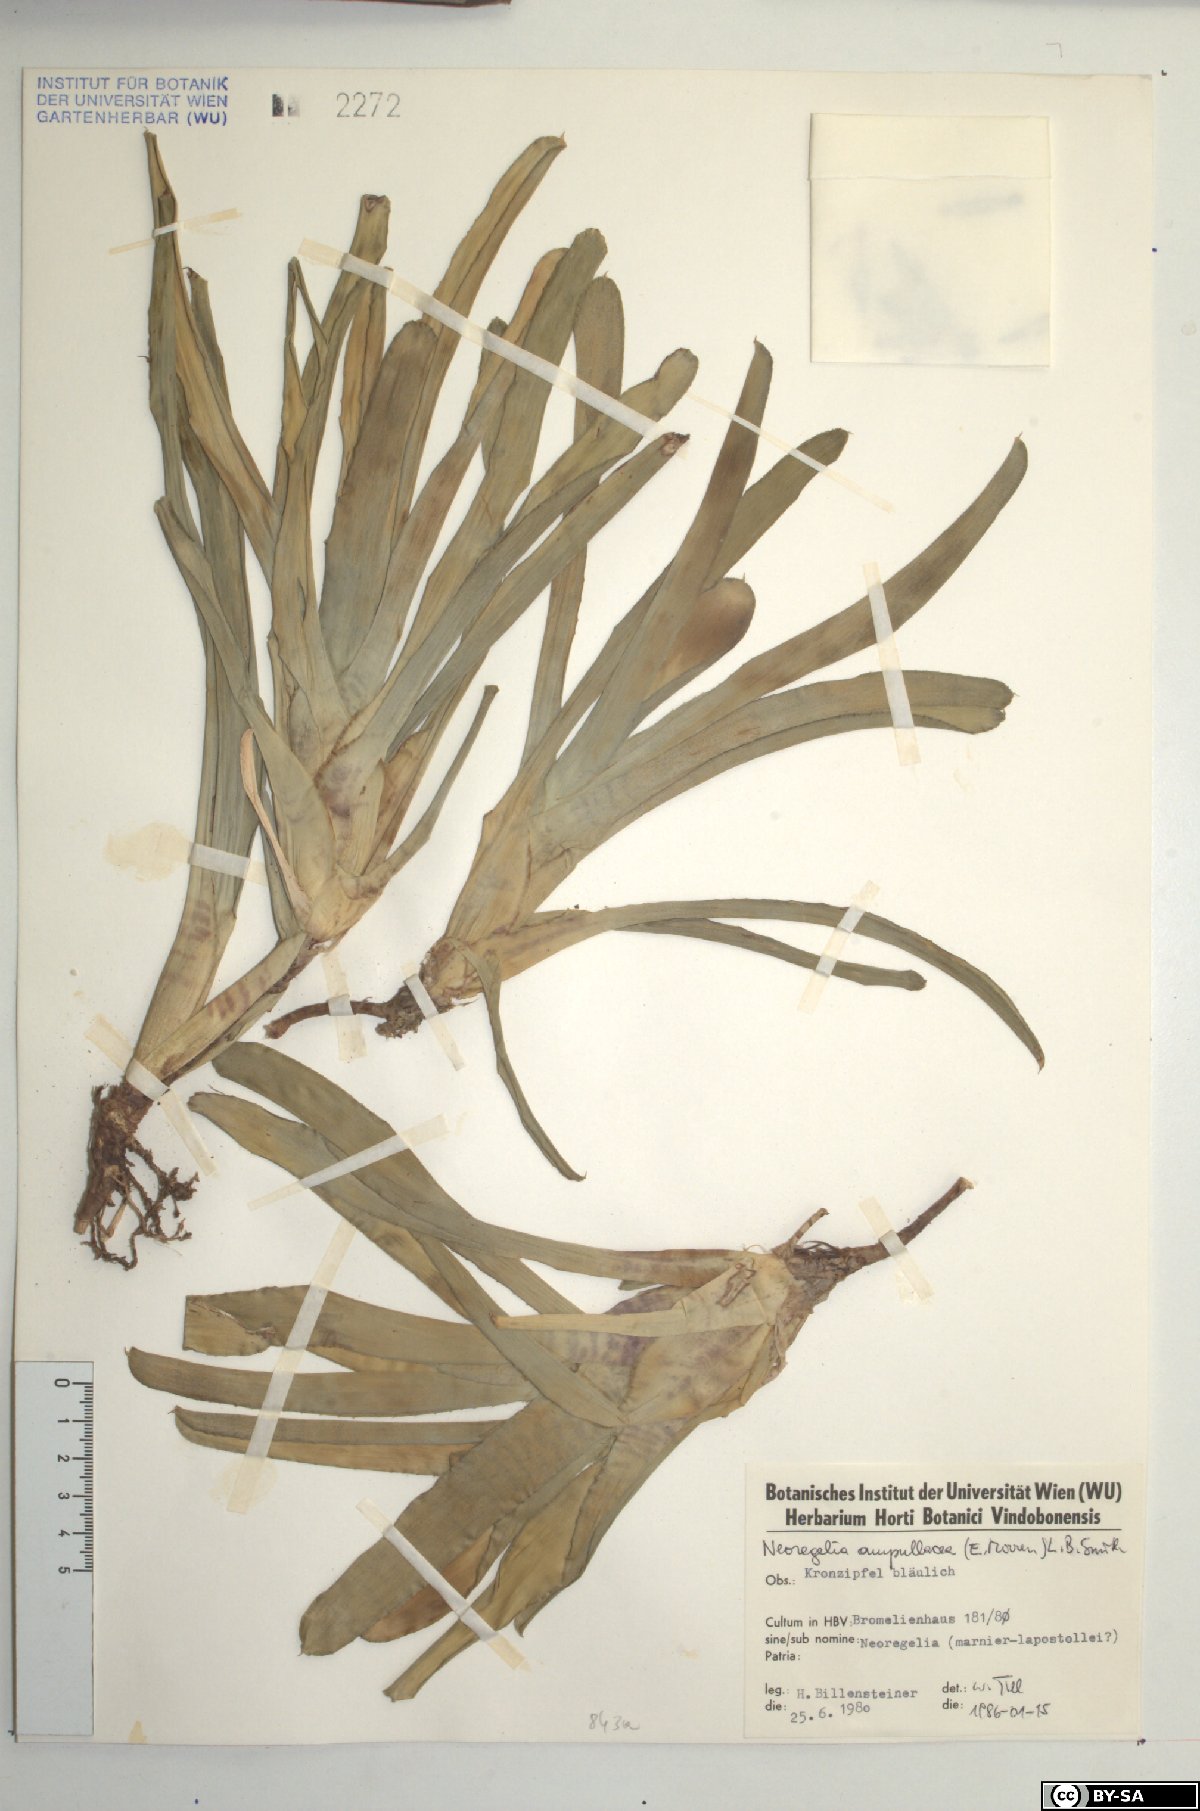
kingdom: Plantae
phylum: Tracheophyta
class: Liliopsida
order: Poales
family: Bromeliaceae
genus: Neoregelia
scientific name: Neoregelia ampullacea
